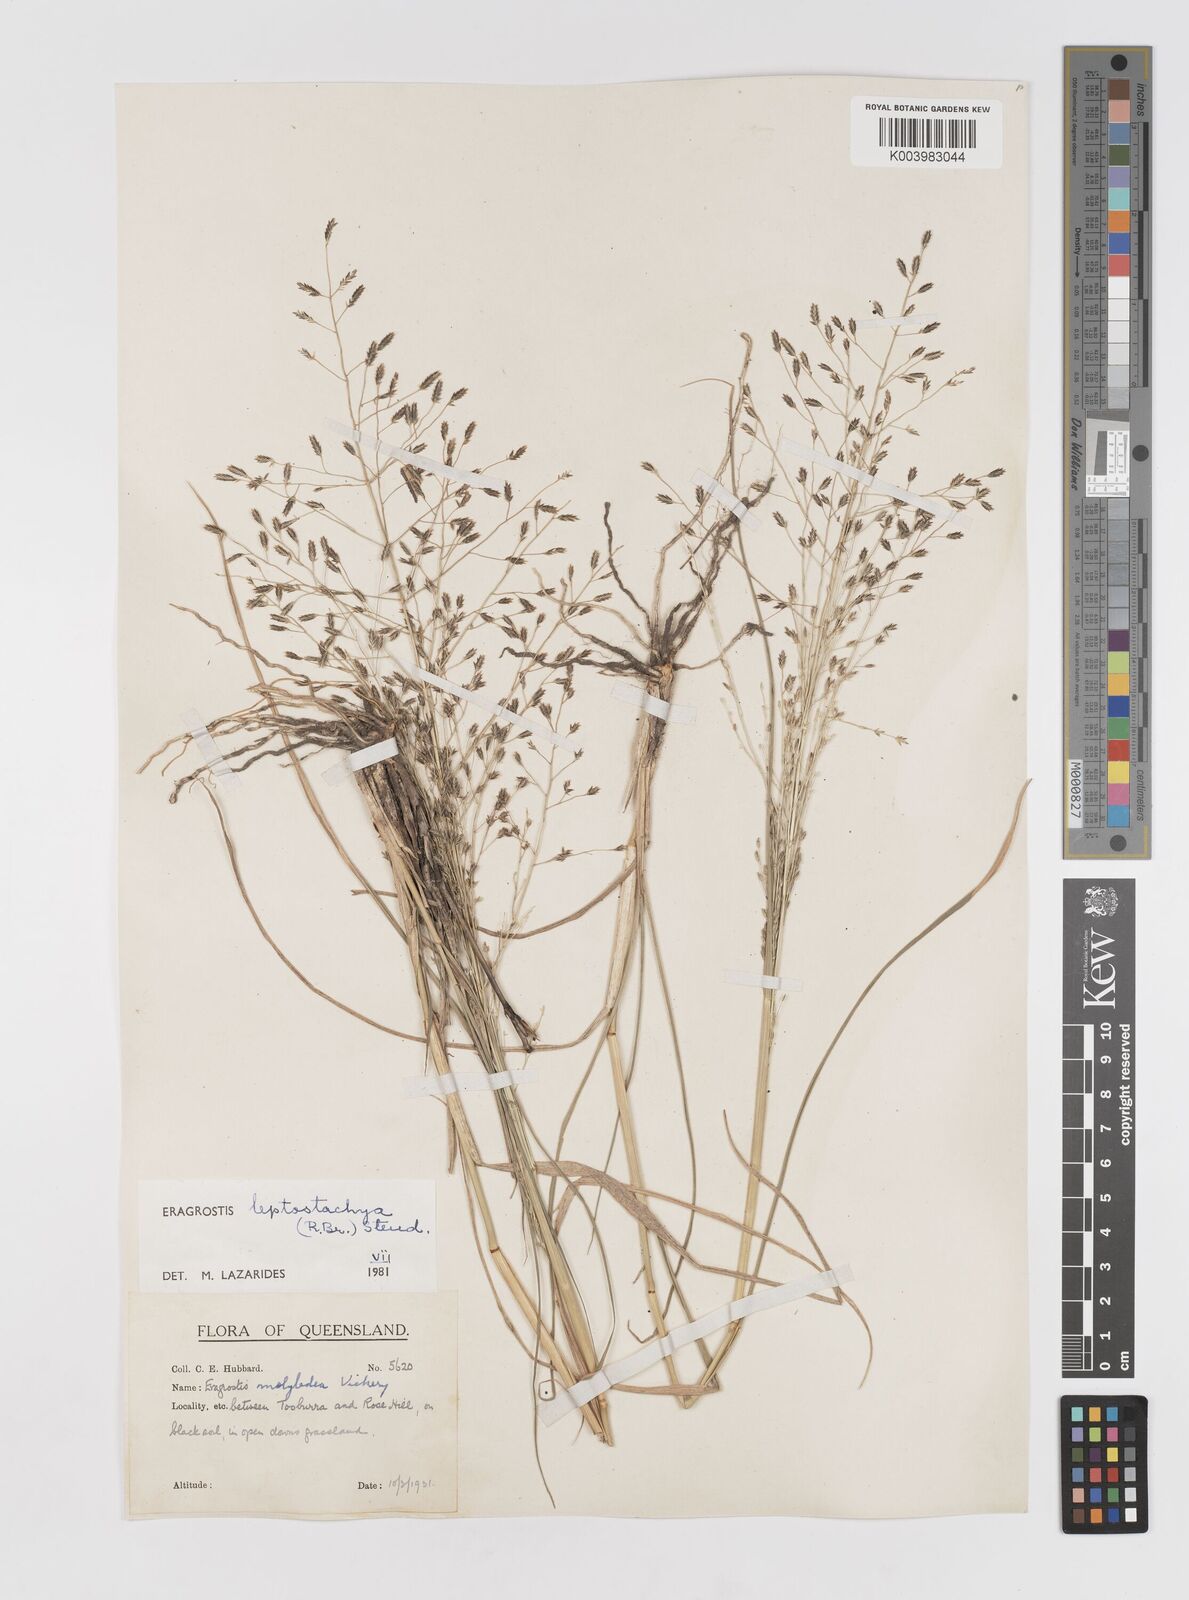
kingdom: Plantae
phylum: Tracheophyta
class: Liliopsida
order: Poales
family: Poaceae
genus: Eragrostis
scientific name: Eragrostis leptostachya
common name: Australian lovegrass
